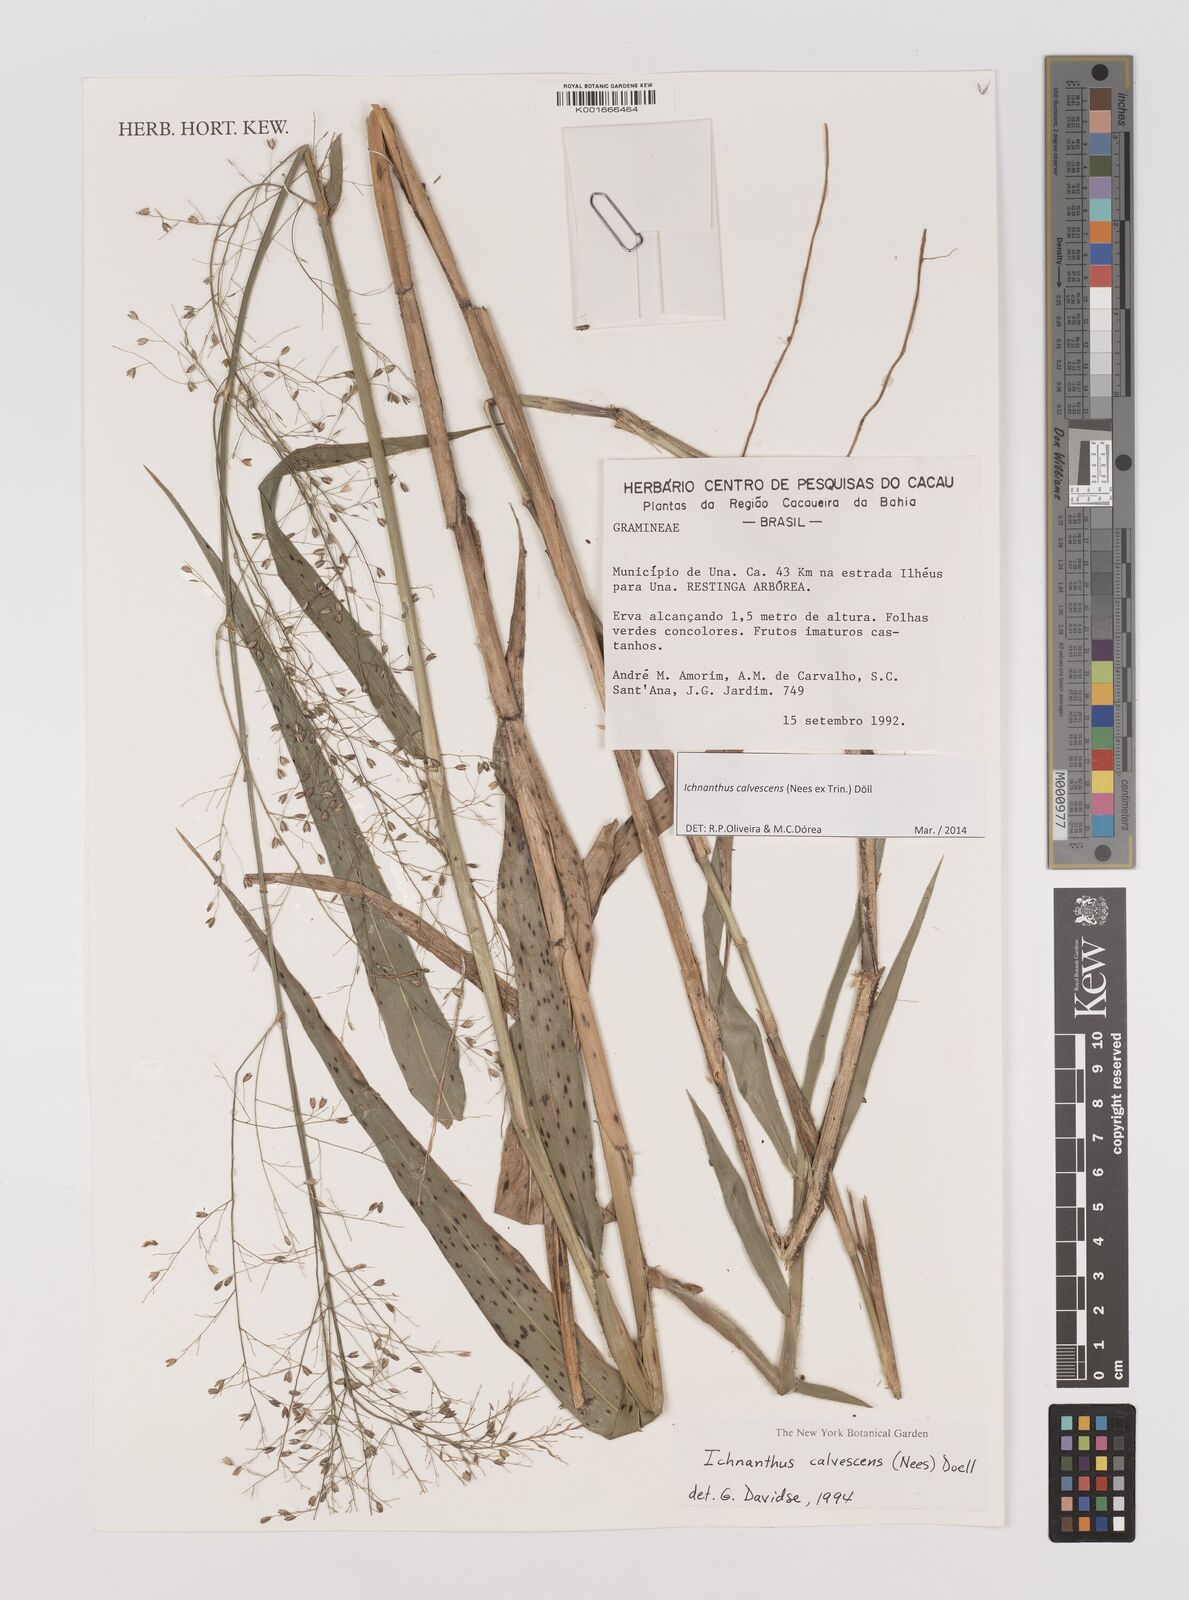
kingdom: Plantae
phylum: Tracheophyta
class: Liliopsida
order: Poales
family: Poaceae
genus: Ichnanthus
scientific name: Ichnanthus calvescens
